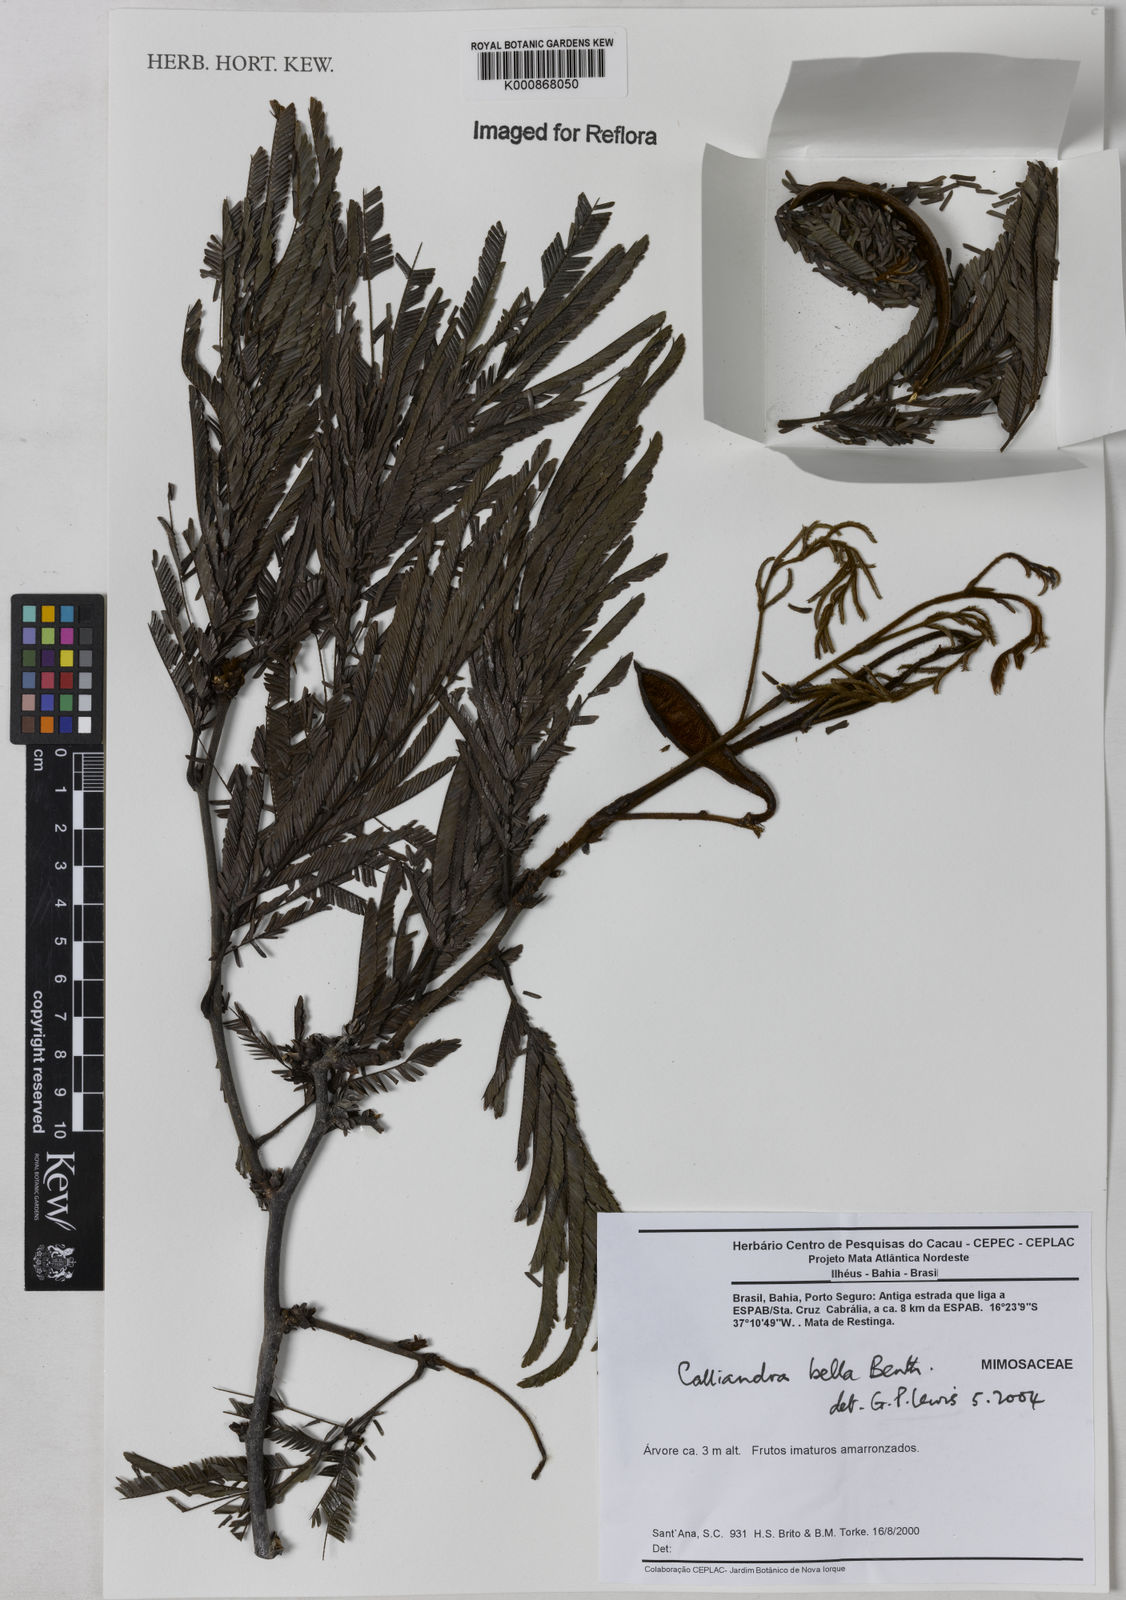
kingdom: Plantae
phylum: Tracheophyta
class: Magnoliopsida
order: Fabales
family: Fabaceae
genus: Calliandra
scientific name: Calliandra bella
